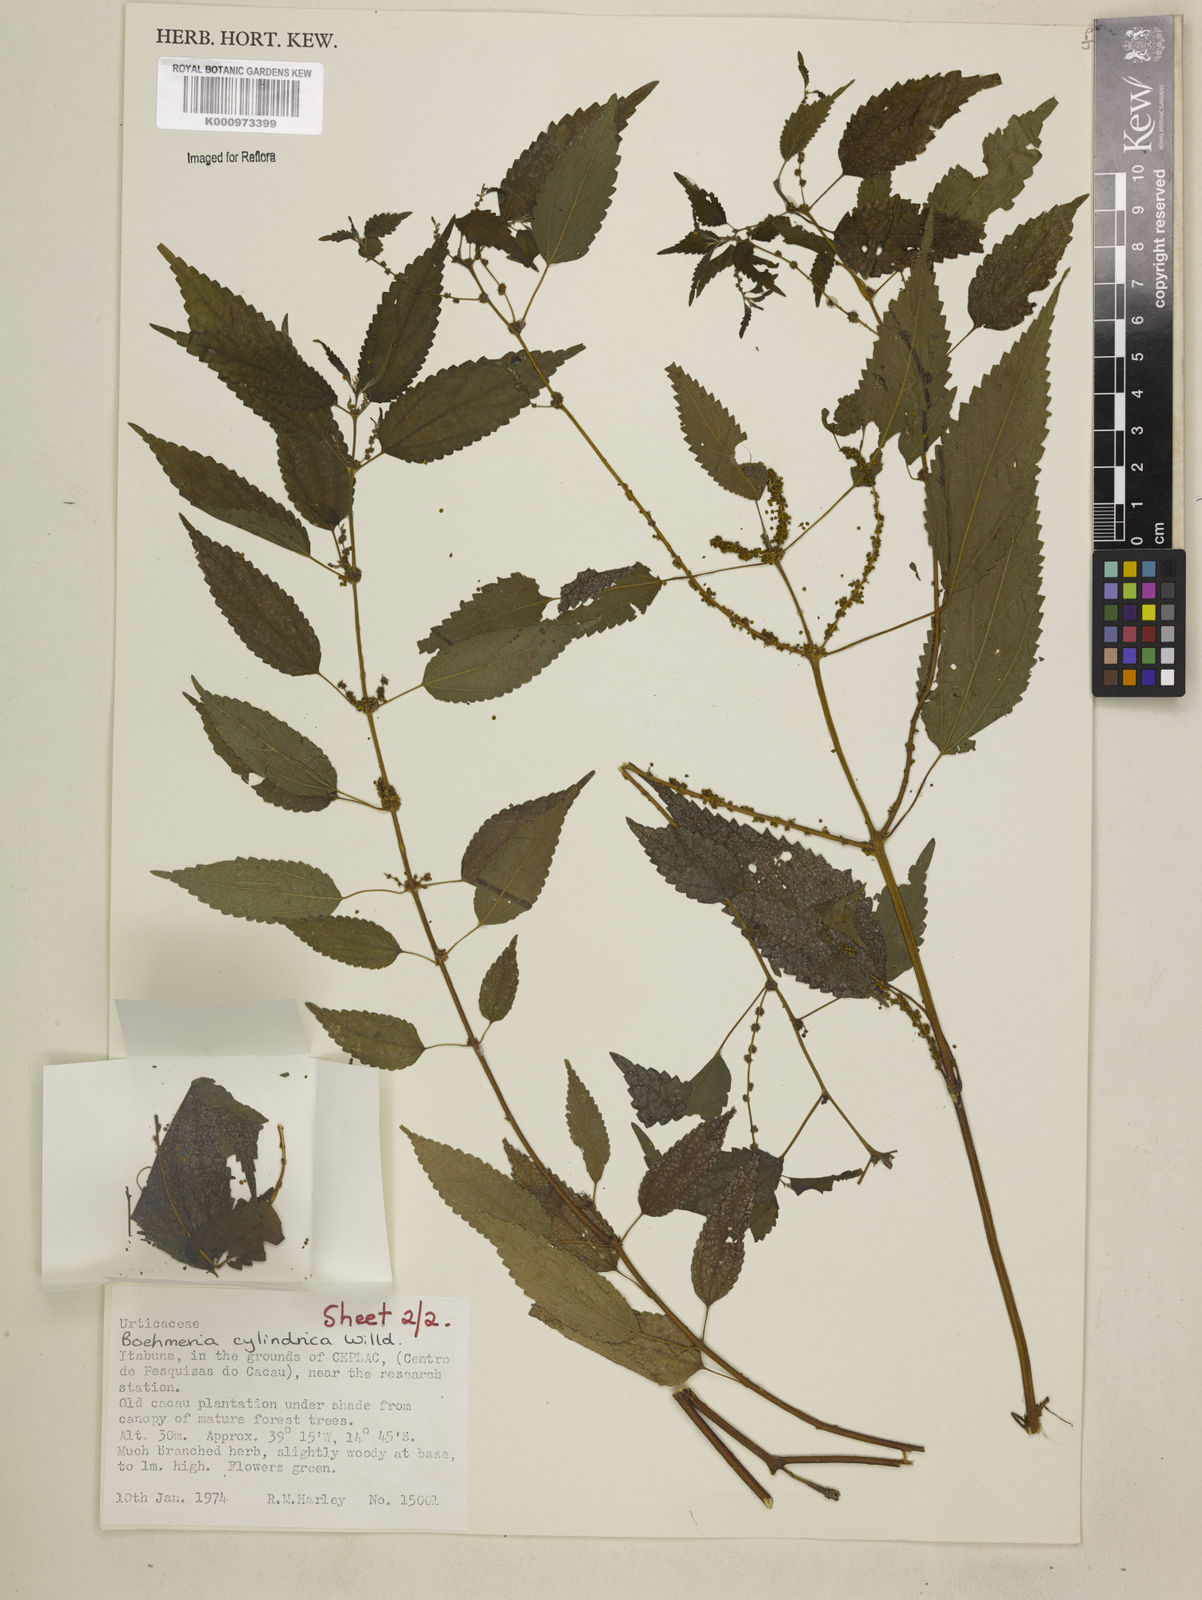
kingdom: Plantae
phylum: Tracheophyta
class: Magnoliopsida
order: Rosales
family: Urticaceae
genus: Boehmeria
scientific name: Boehmeria cylindrica
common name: Bog-hemp
